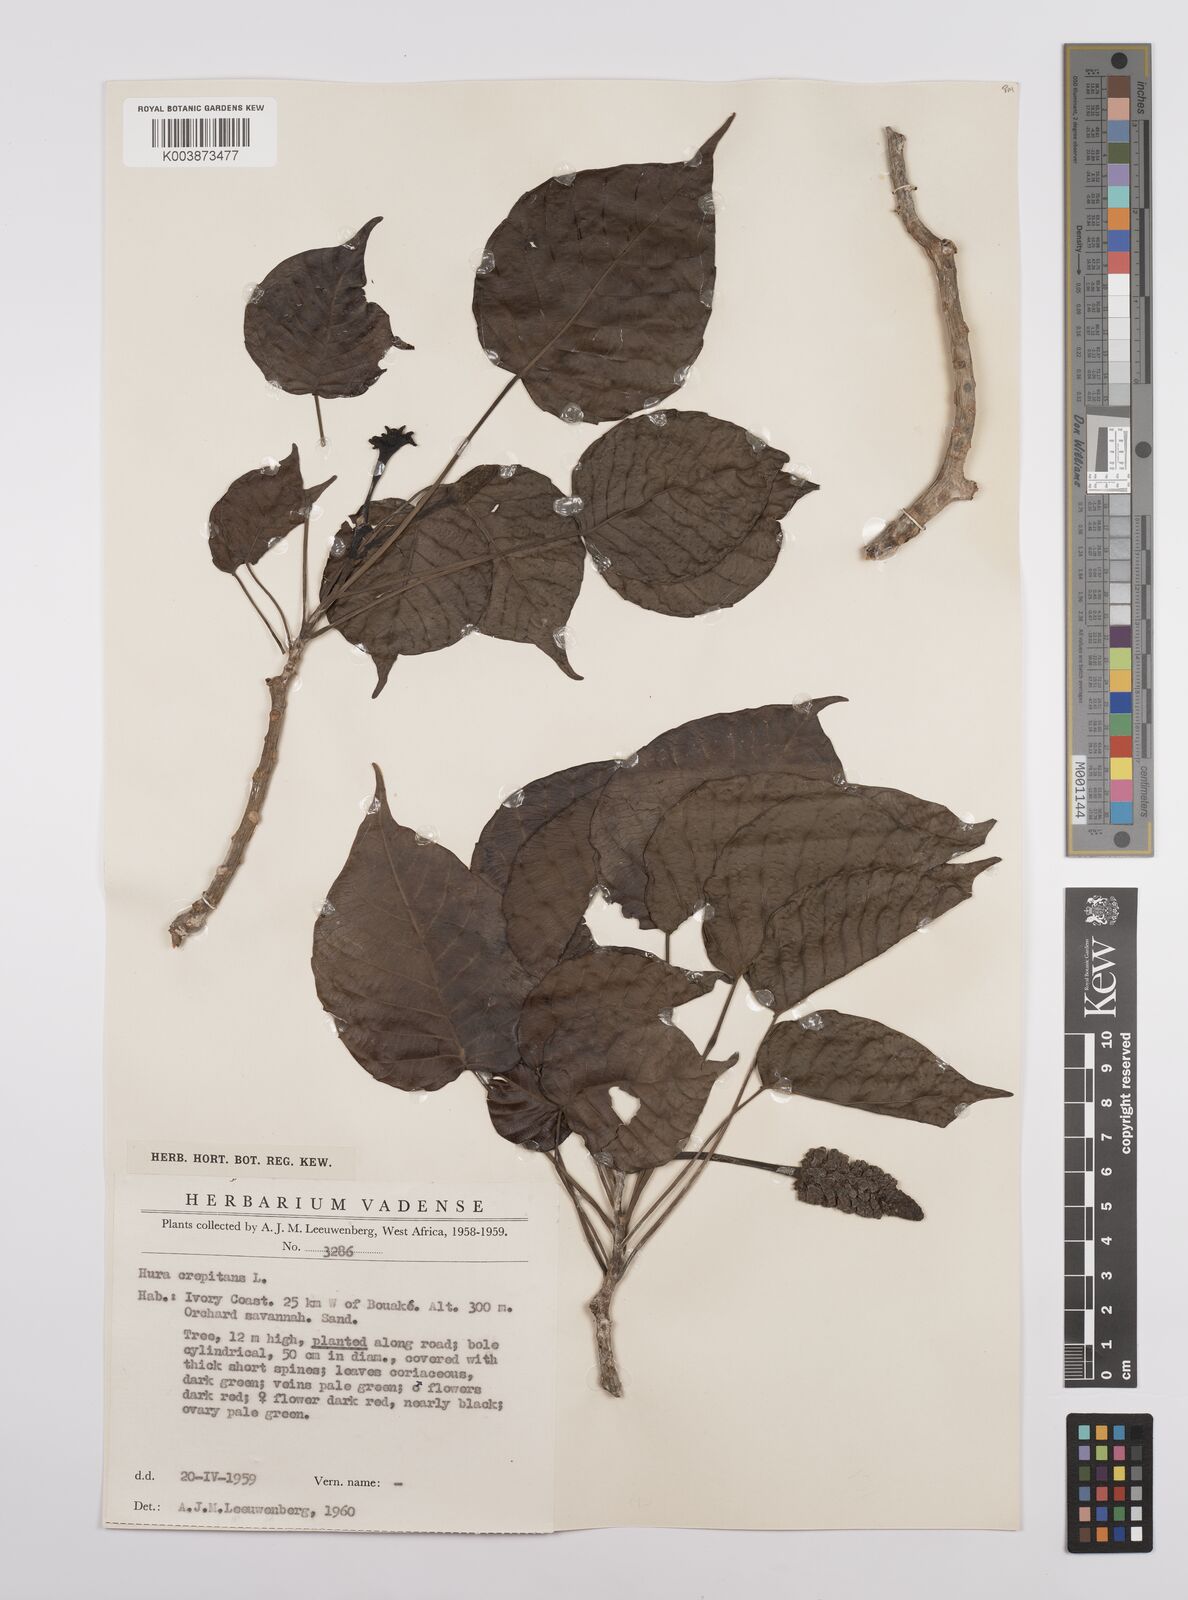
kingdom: Plantae
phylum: Tracheophyta
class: Magnoliopsida
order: Malpighiales
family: Euphorbiaceae
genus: Hura
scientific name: Hura crepitans
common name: Sandboxtree
